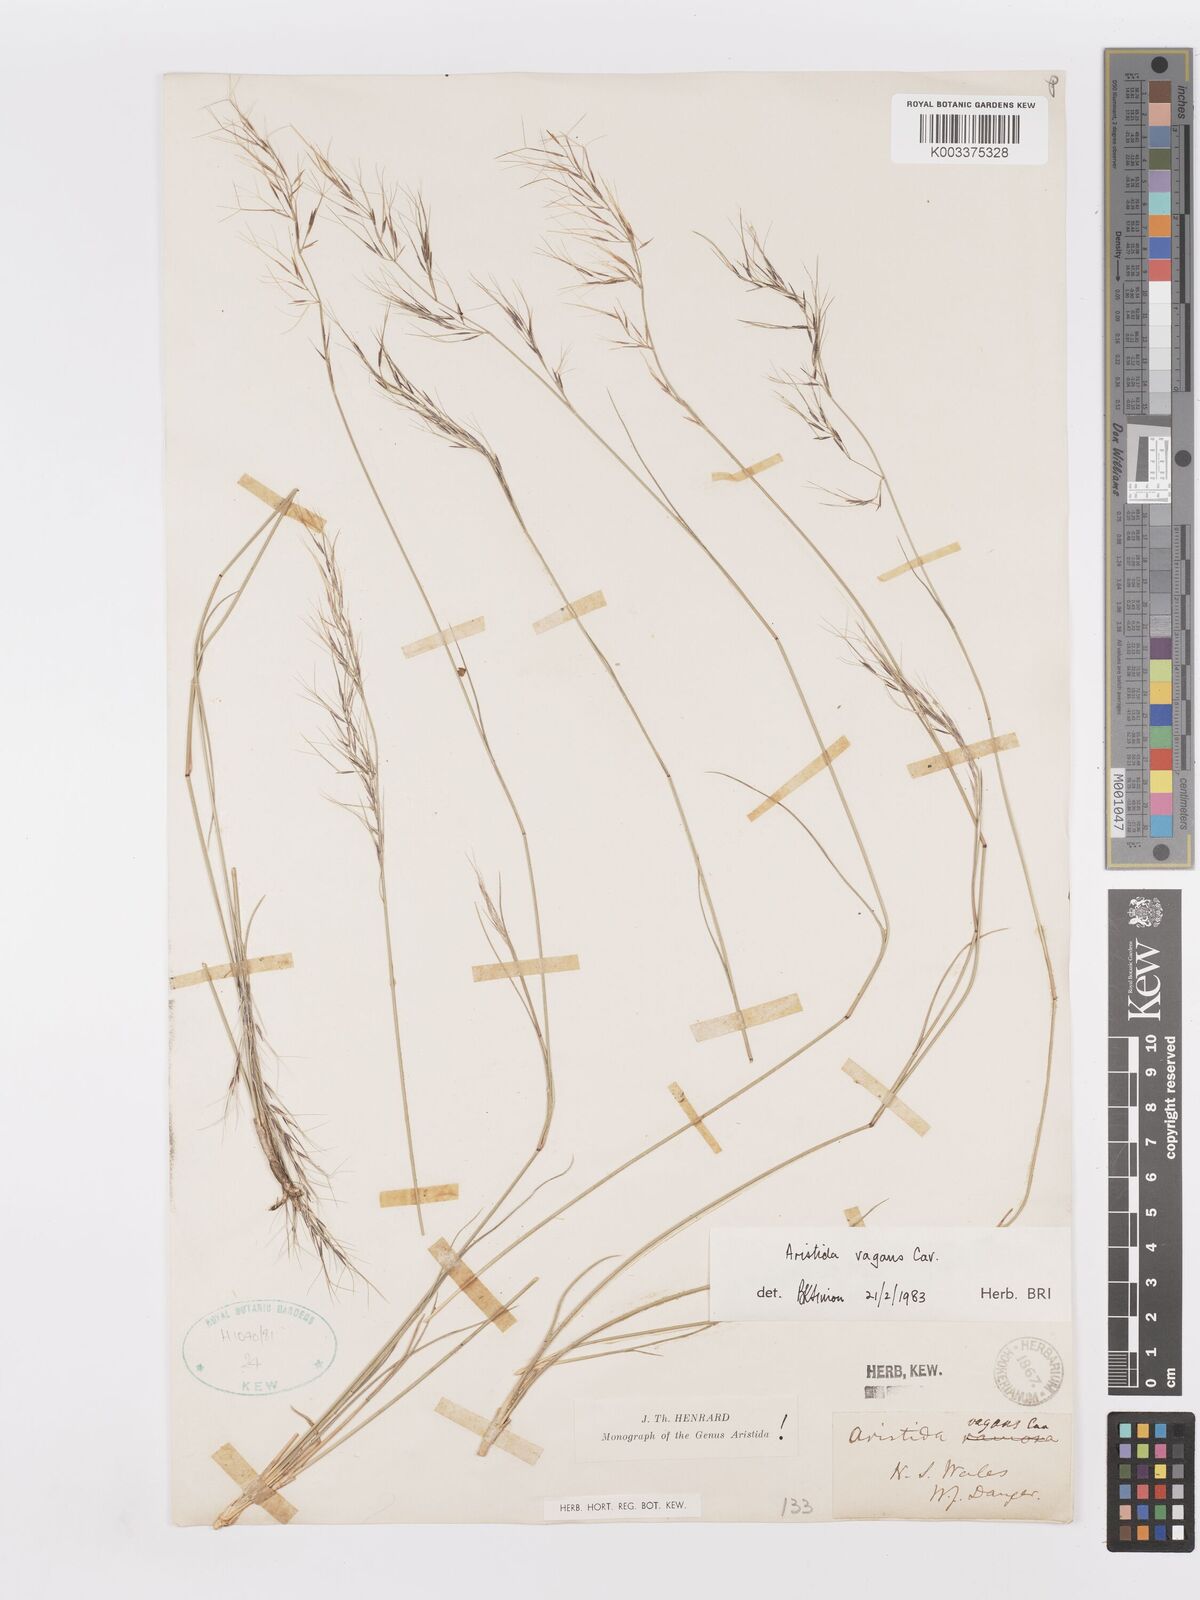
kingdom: Plantae
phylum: Tracheophyta
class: Liliopsida
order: Poales
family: Poaceae
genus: Aristida
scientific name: Aristida vagans
